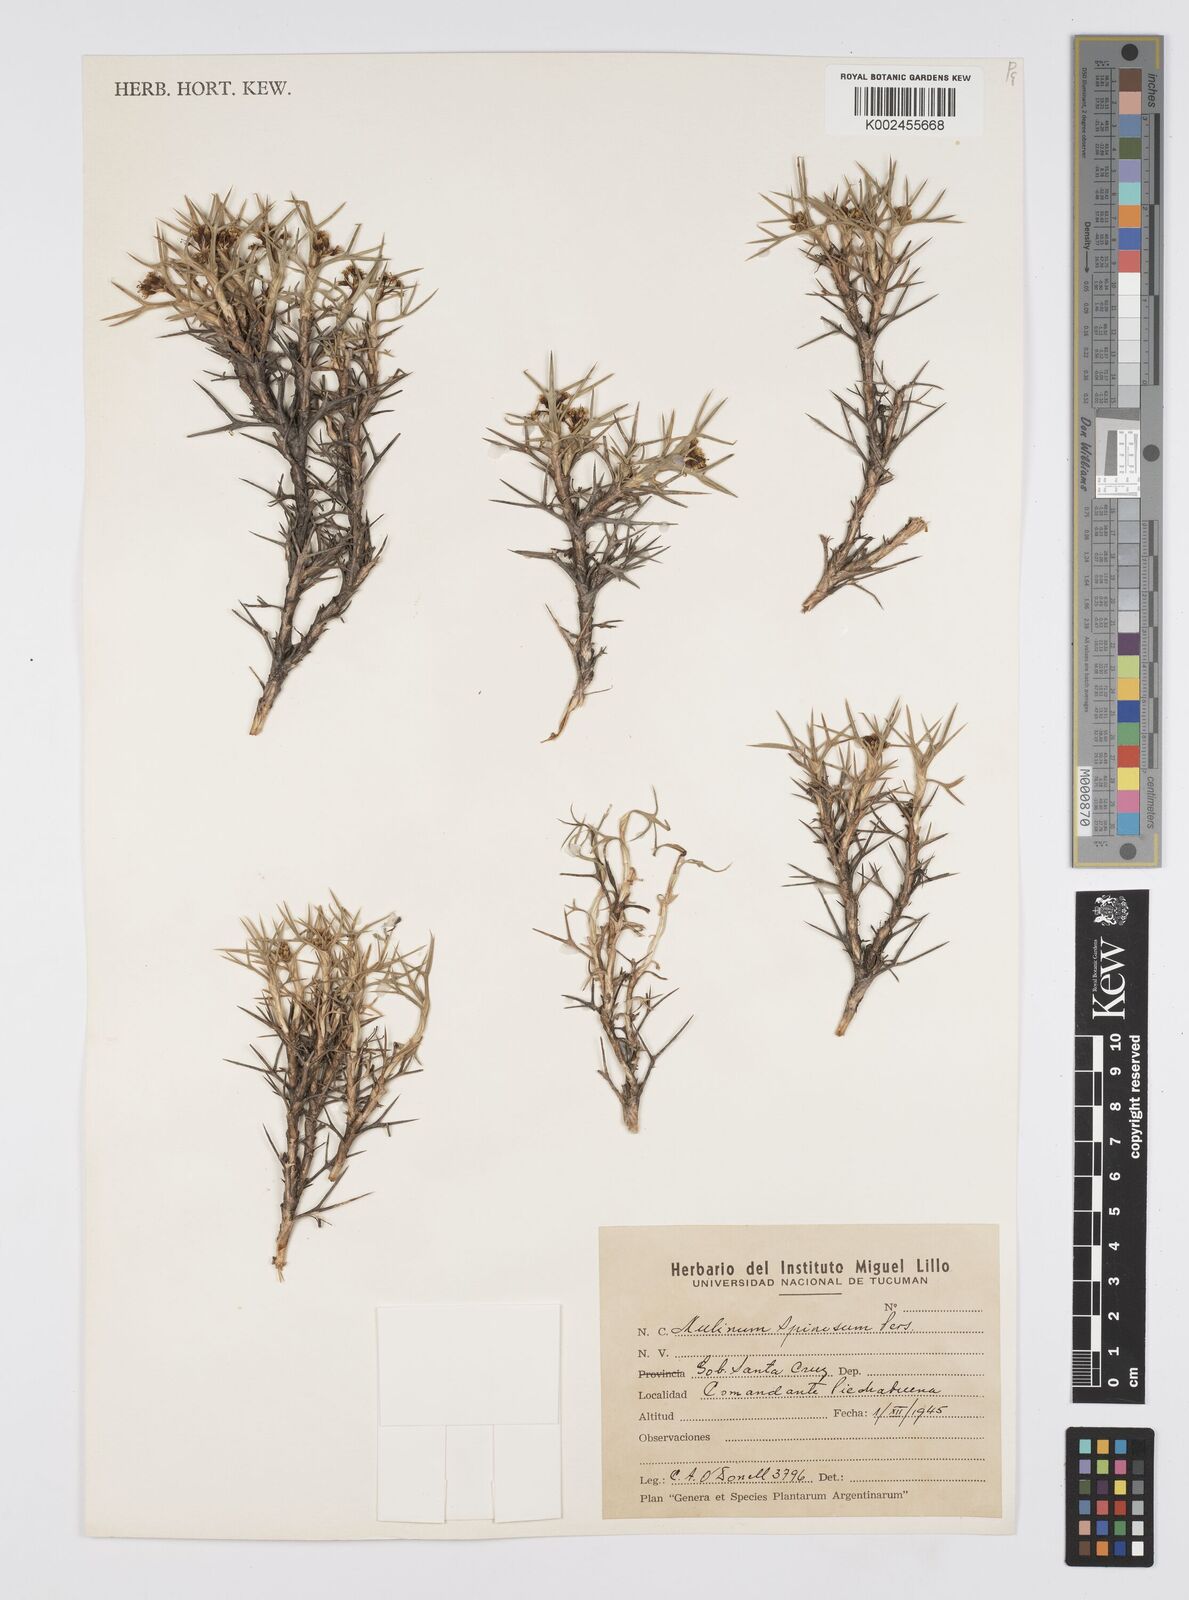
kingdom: Plantae
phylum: Tracheophyta
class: Magnoliopsida
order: Apiales
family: Apiaceae
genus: Azorella
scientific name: Azorella prolifera
